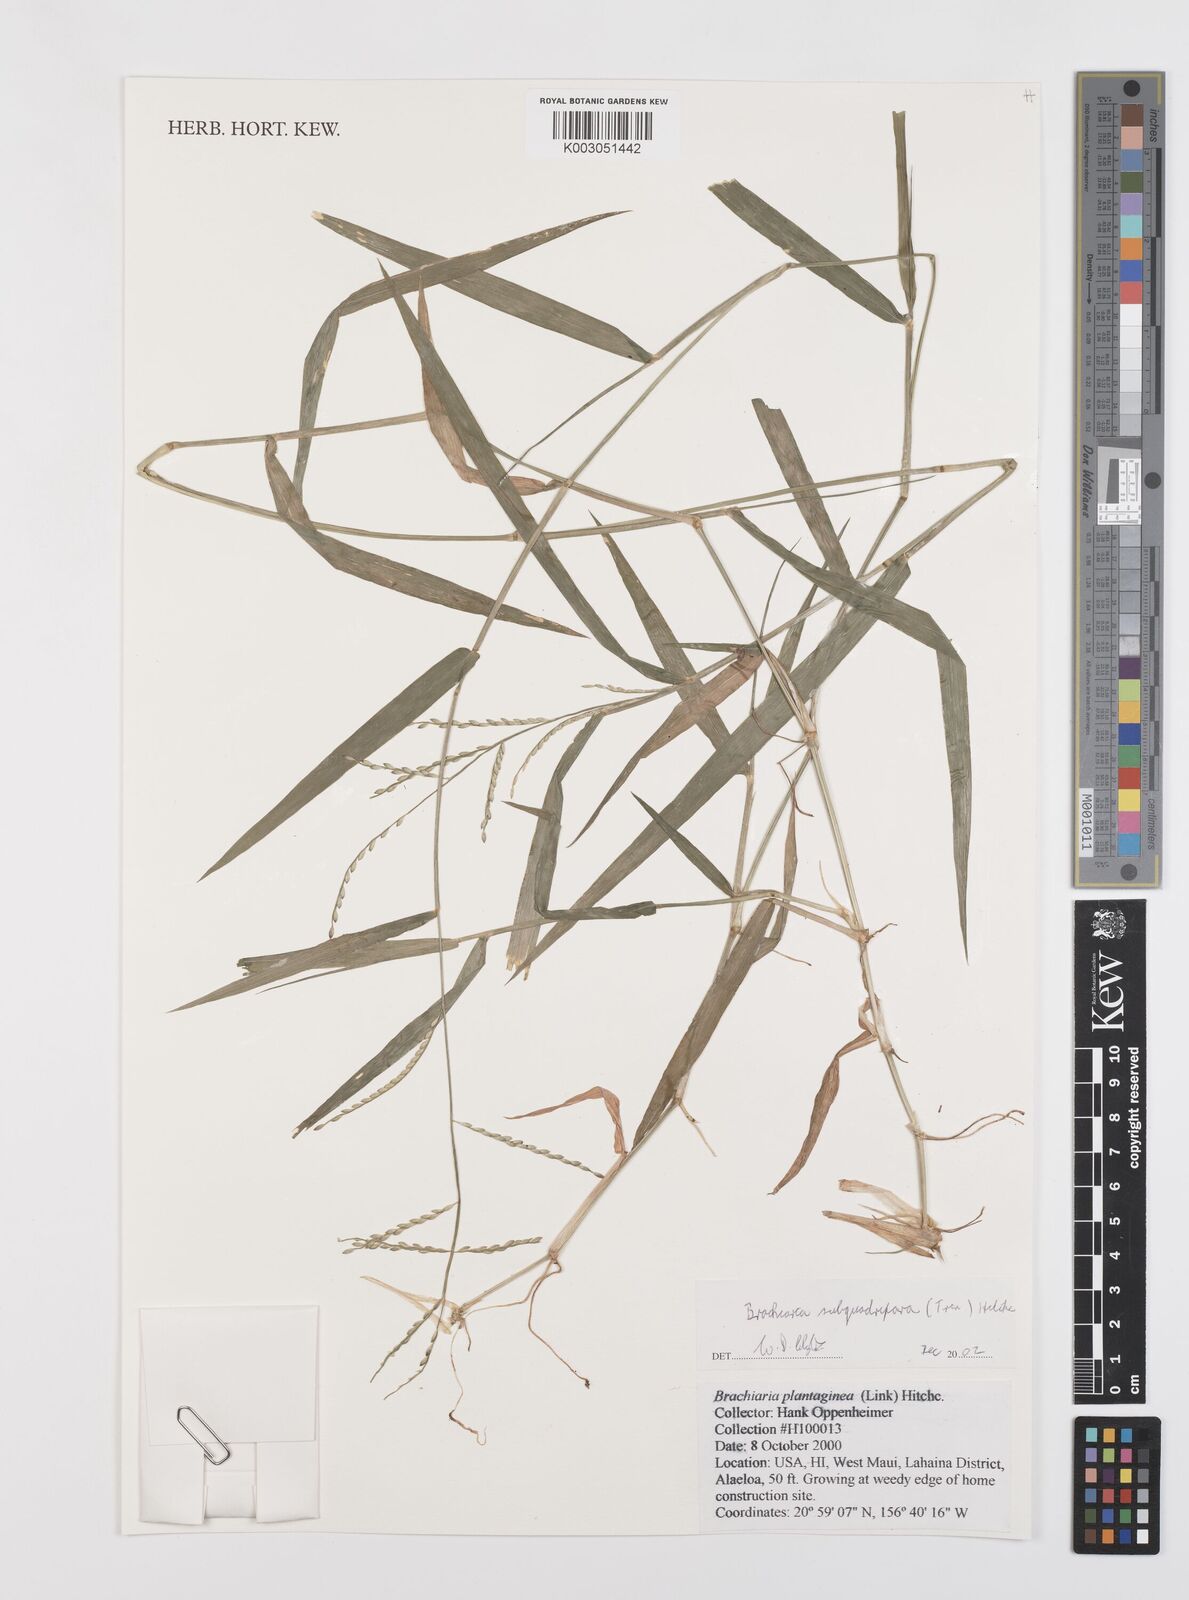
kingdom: Plantae
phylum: Tracheophyta
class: Liliopsida
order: Poales
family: Poaceae
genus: Urochloa
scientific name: Urochloa subquadripara
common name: Armgrass millet
